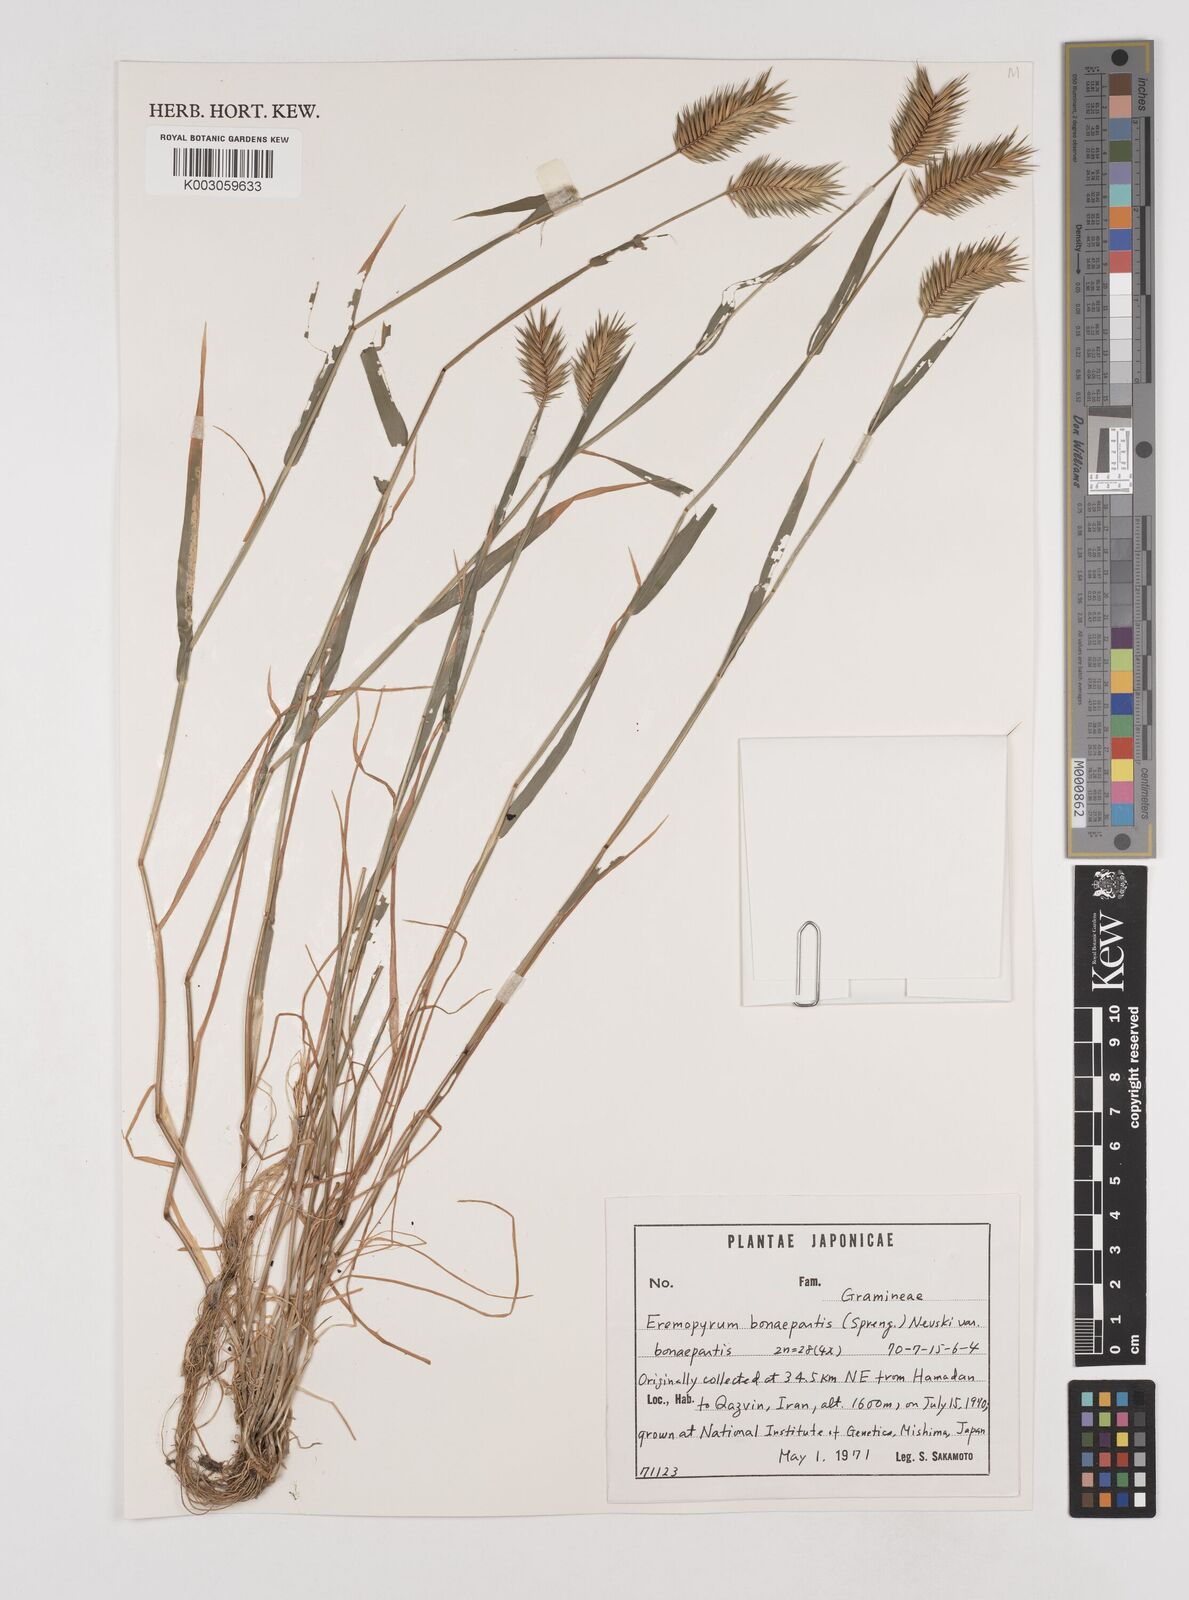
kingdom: Plantae
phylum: Tracheophyta
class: Liliopsida
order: Poales
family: Poaceae
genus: Eremopyrum
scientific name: Eremopyrum bonaepartis
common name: Tapertip false wheatgrass
